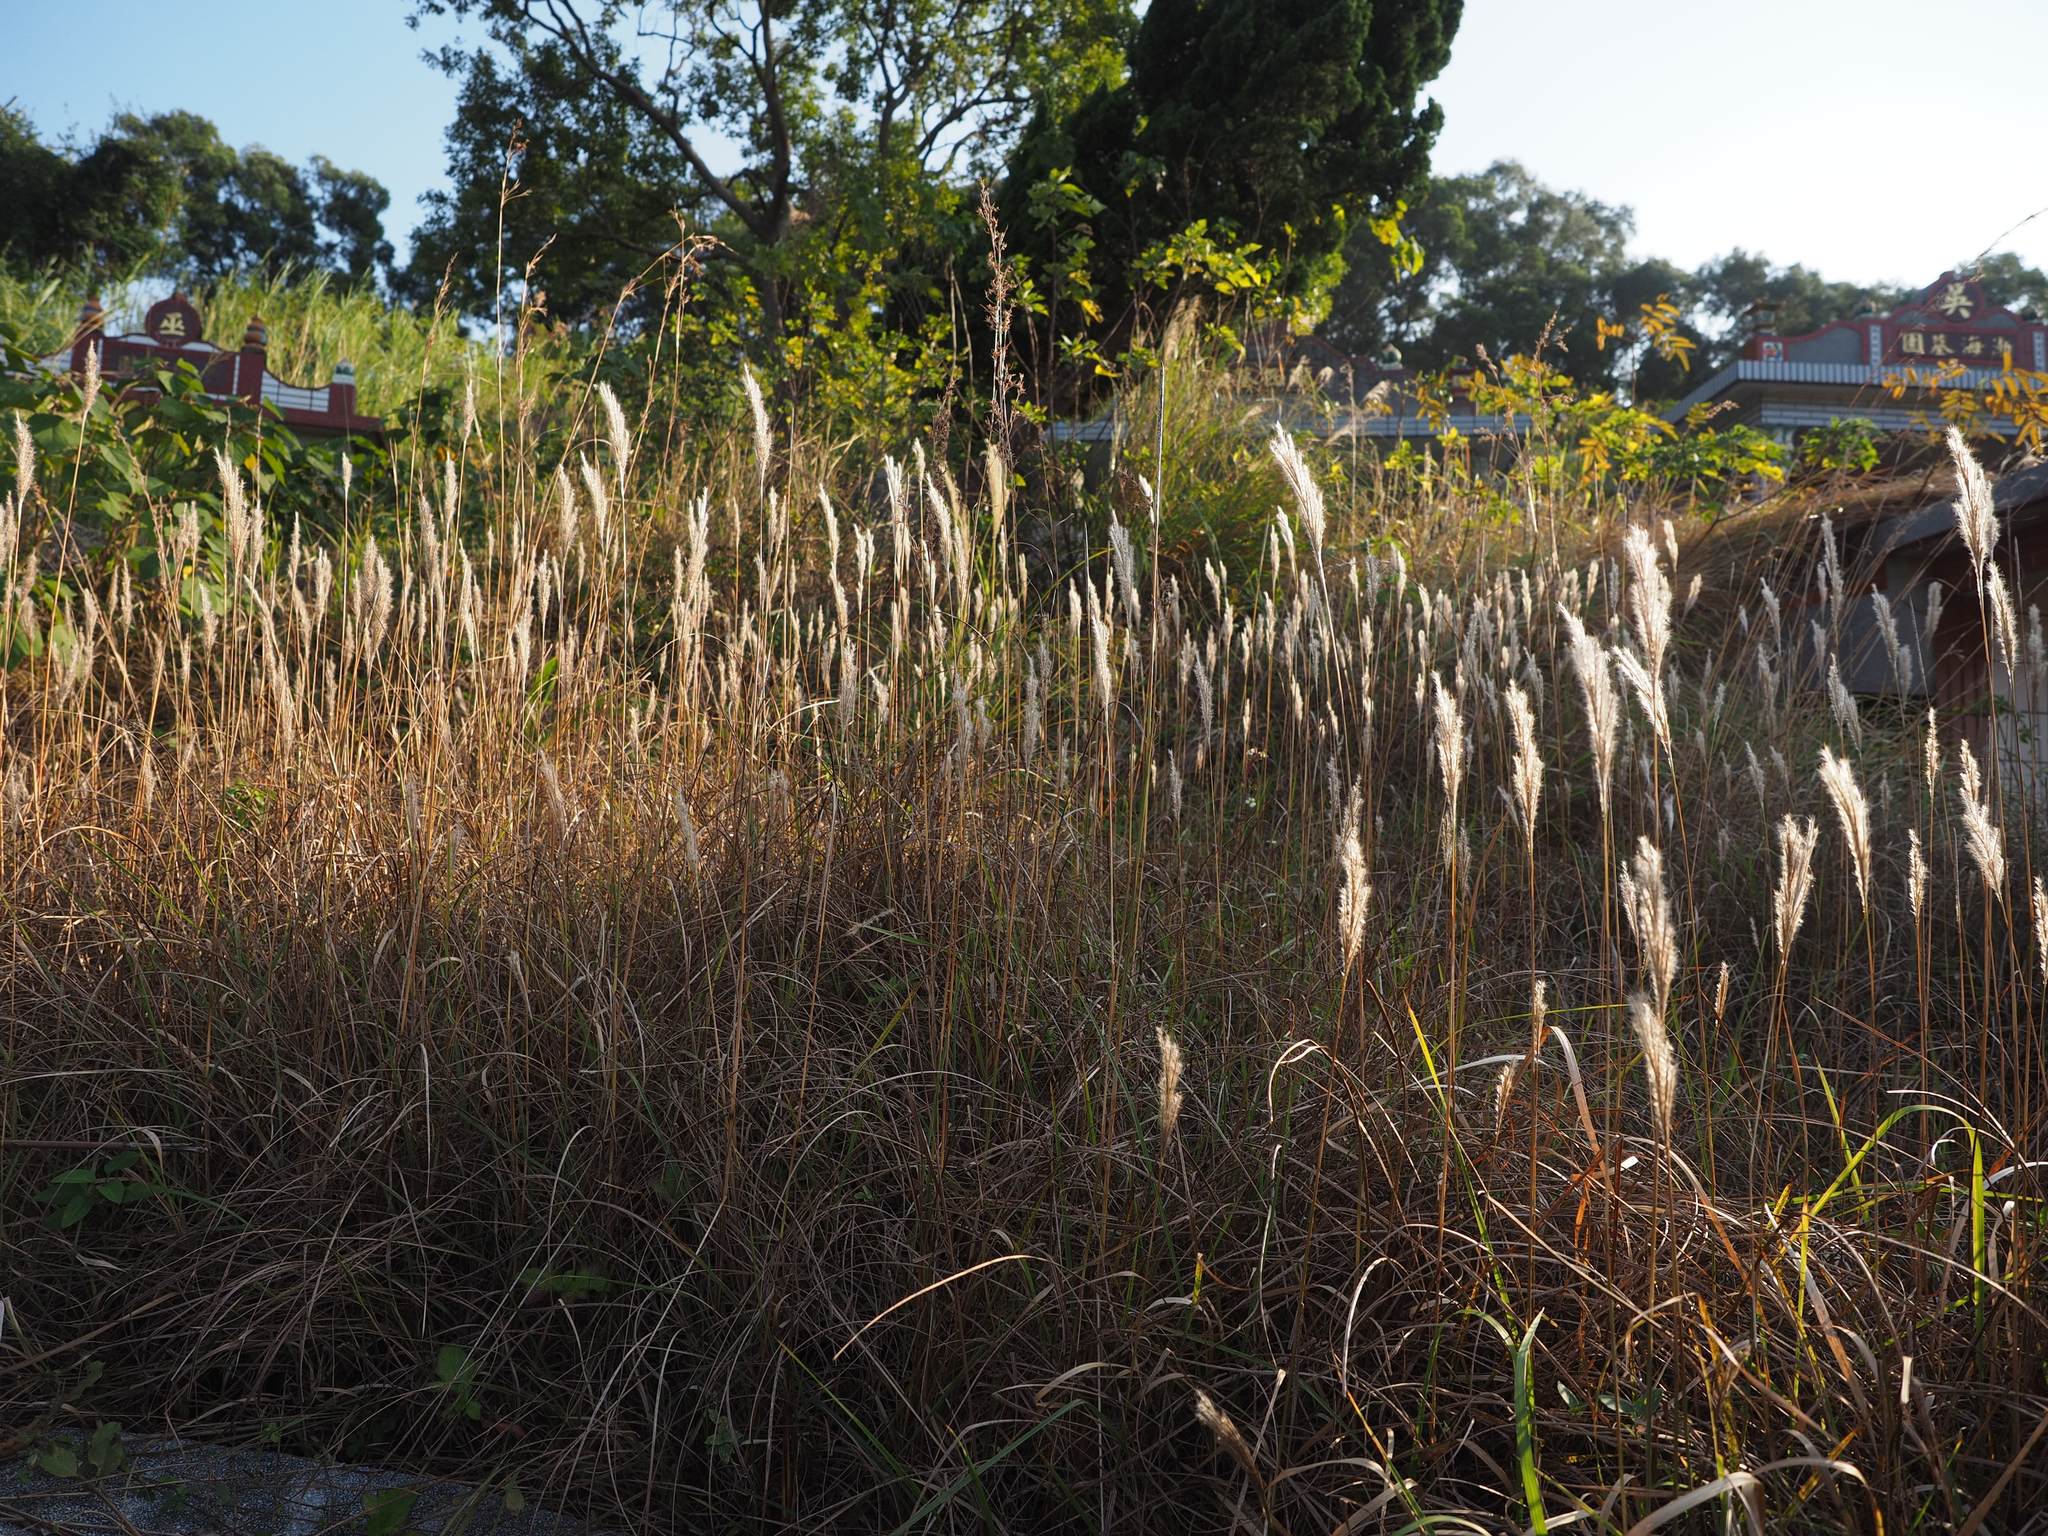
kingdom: Plantae
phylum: Tracheophyta
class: Liliopsida
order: Poales
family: Poaceae
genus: Saccharum
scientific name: Saccharum formosanum
